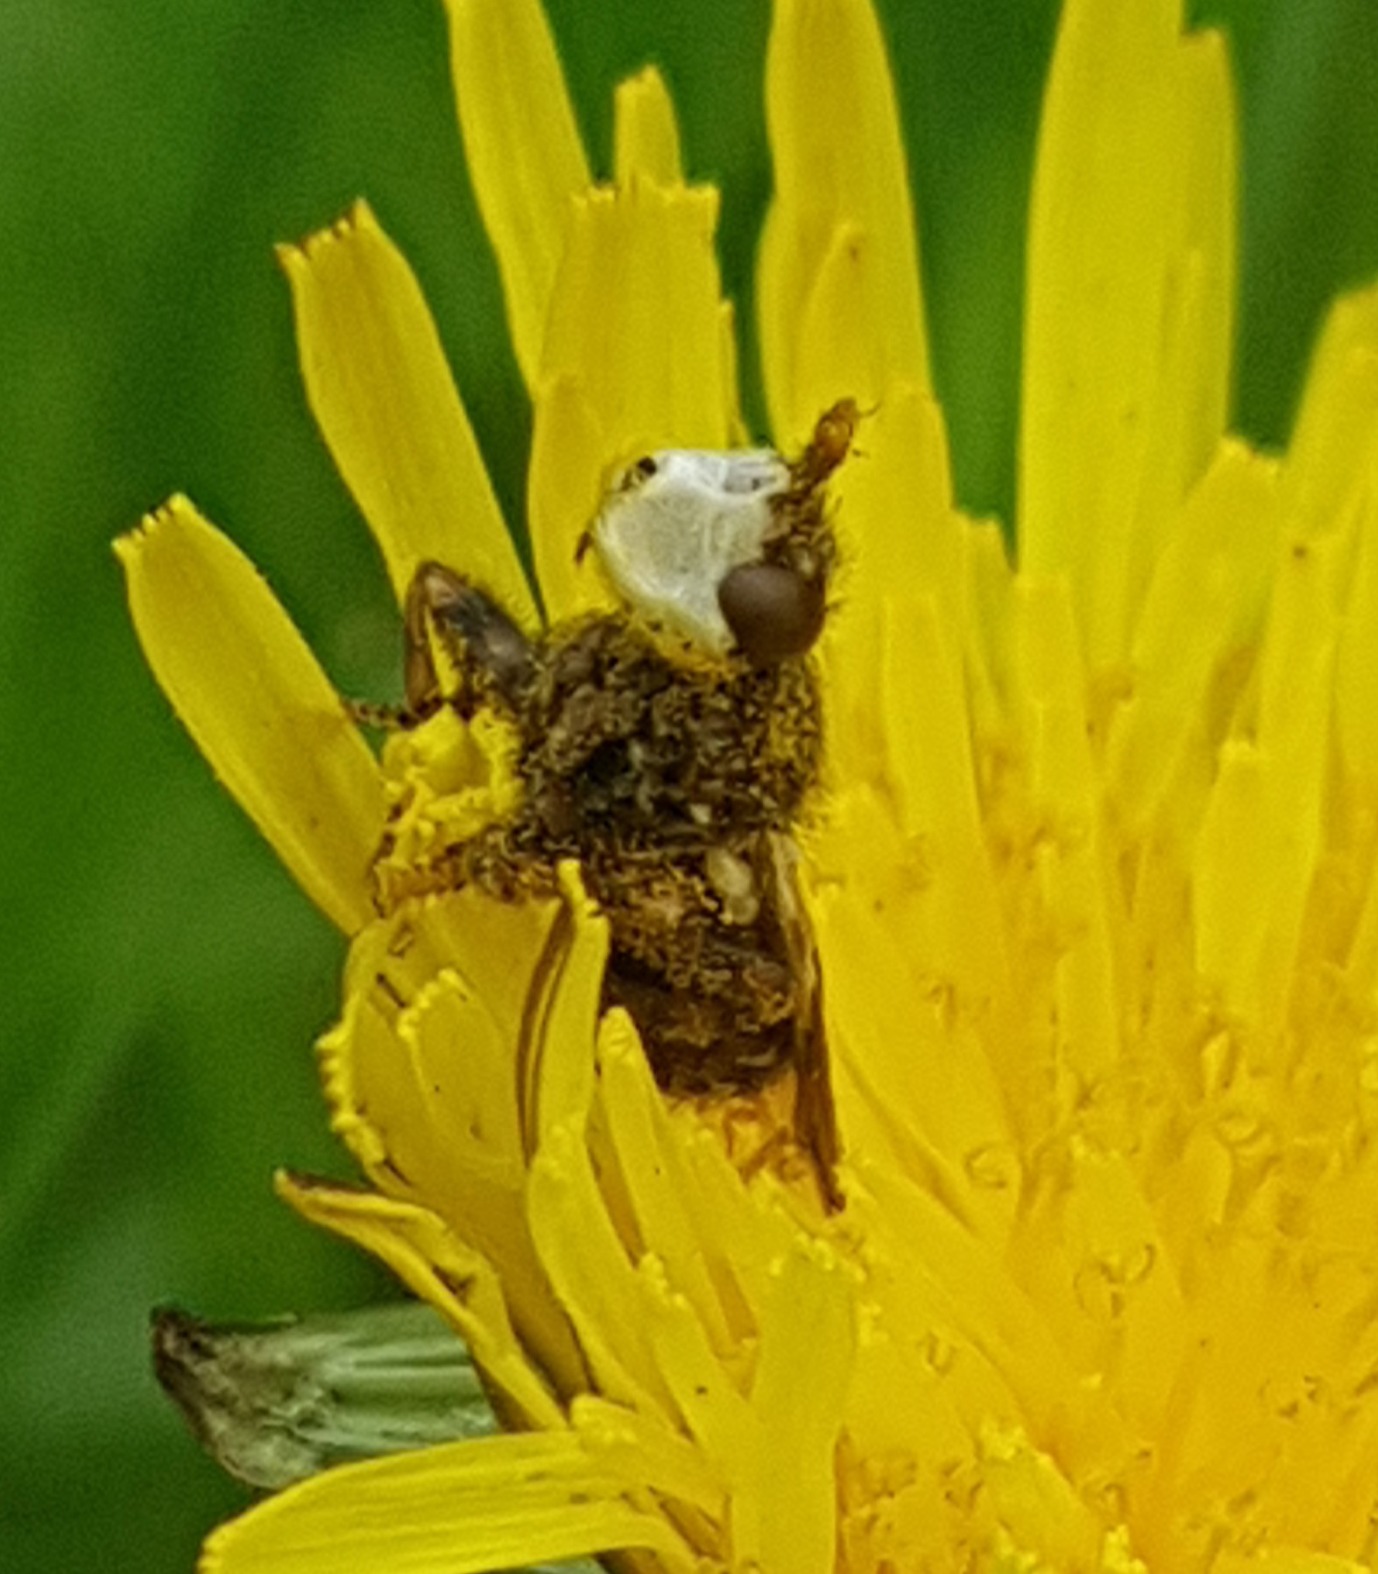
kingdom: Animalia
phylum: Arthropoda
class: Insecta
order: Diptera
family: Conopidae
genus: Myopa
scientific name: Myopa buccata
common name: Brun hvepseflue
